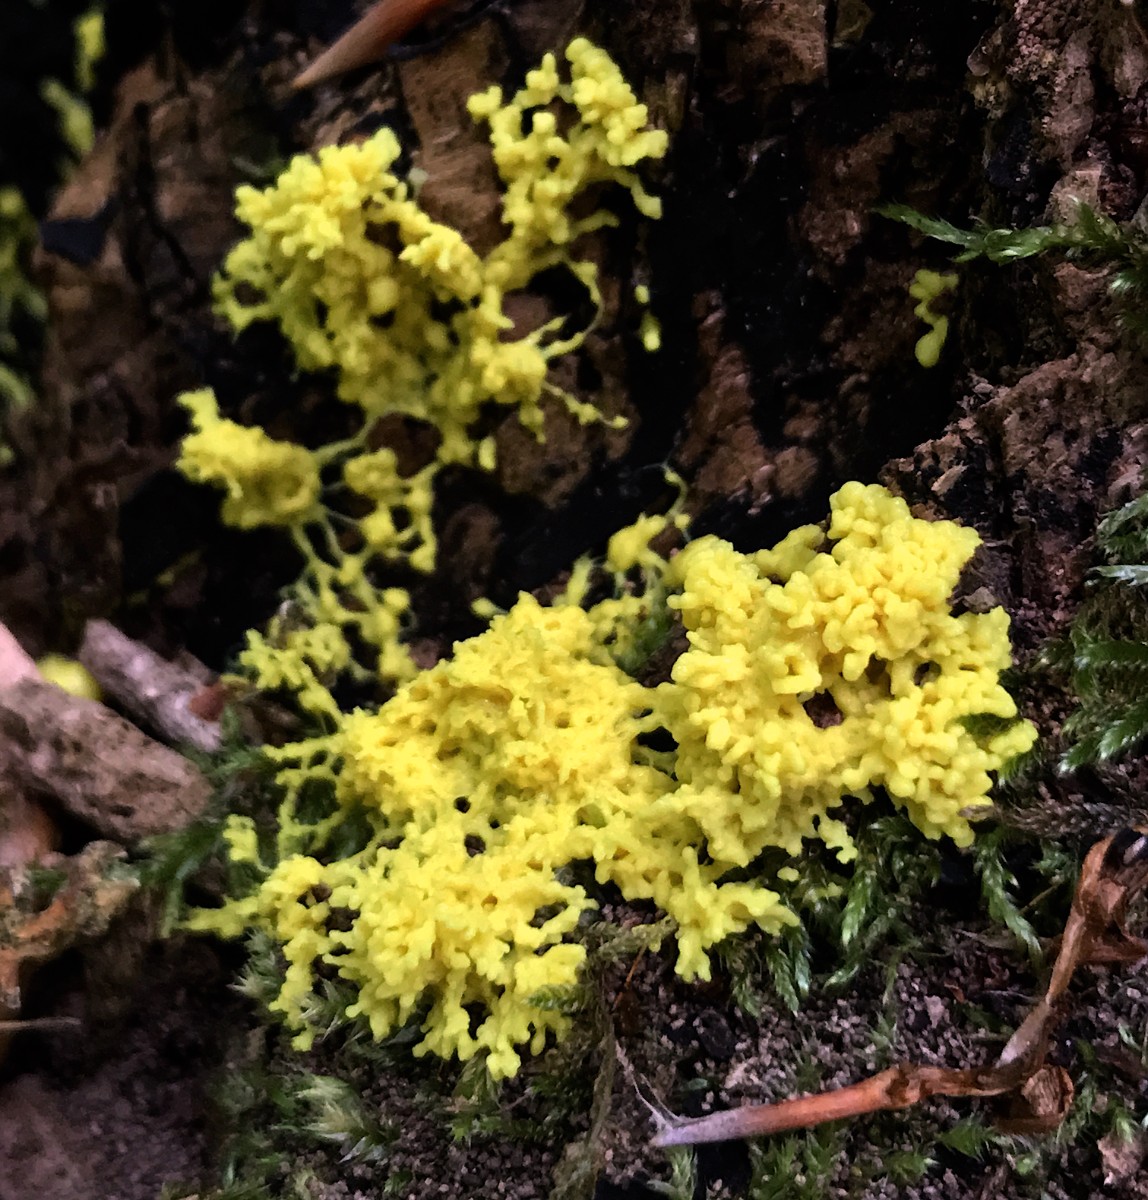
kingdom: Protozoa
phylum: Mycetozoa
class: Myxomycetes
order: Physarales
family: Physaraceae
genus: Fuligo
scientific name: Fuligo septica
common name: gul troldsmør
